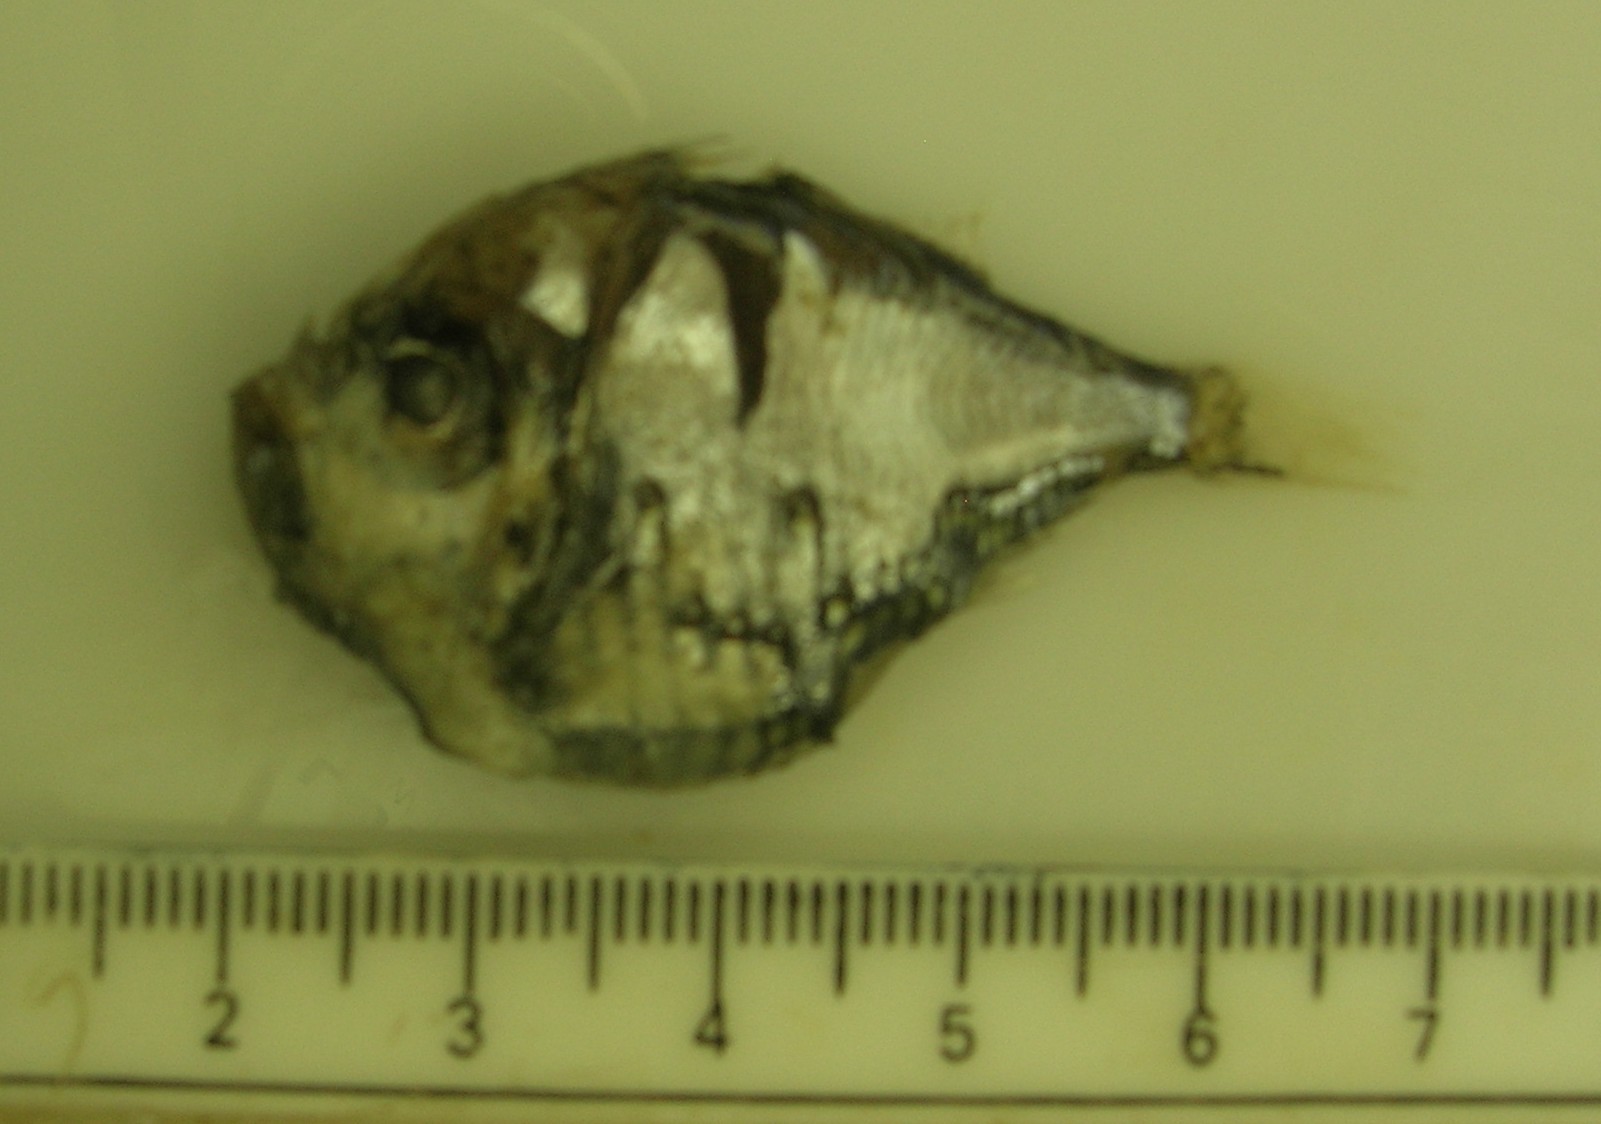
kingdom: Animalia
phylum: Chordata
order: Stomiiformes
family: Sternoptychidae
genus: Polyipnus
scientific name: Polyipnus indicus
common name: Indian hatchetfish
